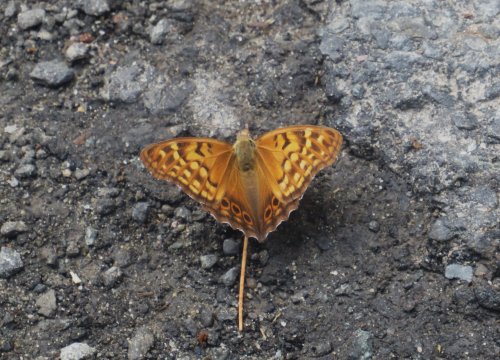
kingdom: Animalia
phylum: Arthropoda
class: Insecta
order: Lepidoptera
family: Nymphalidae
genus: Asterocampa
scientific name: Asterocampa clyton
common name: Tawny Emperor
